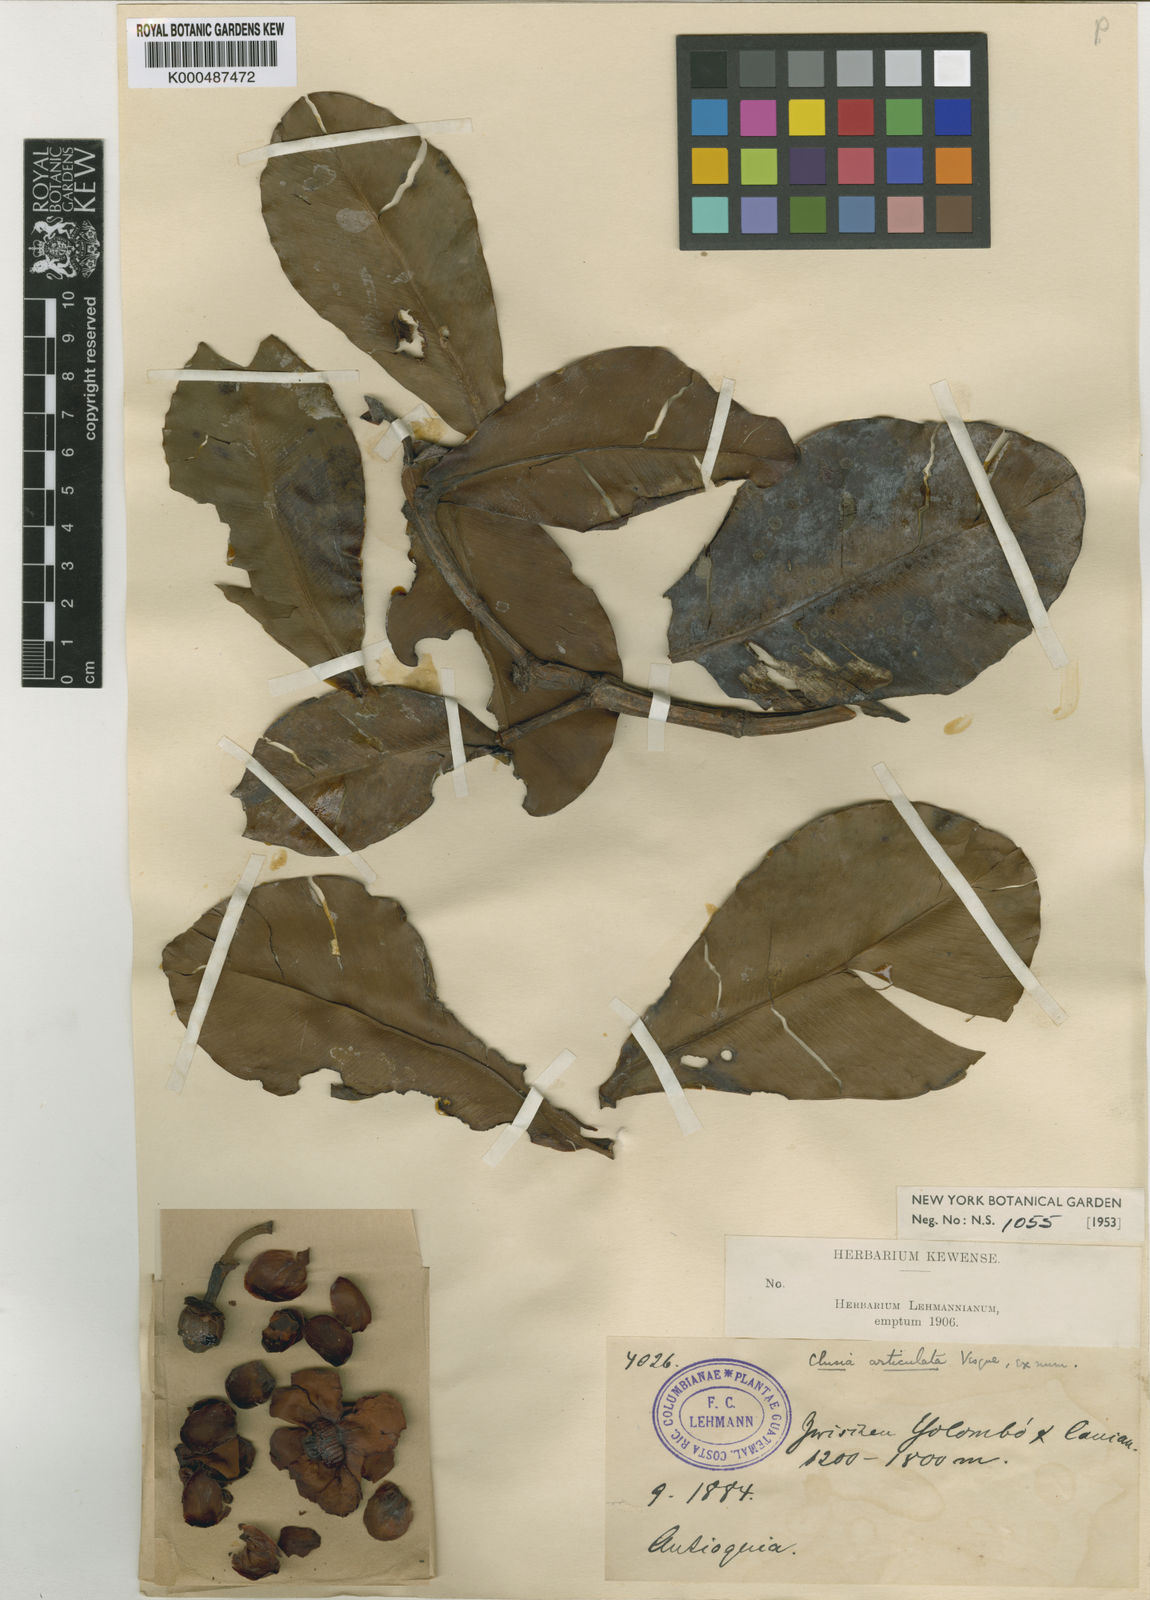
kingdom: Plantae
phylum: Tracheophyta
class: Magnoliopsida
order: Malpighiales
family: Clusiaceae
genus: Clusia
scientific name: Clusia articulata
